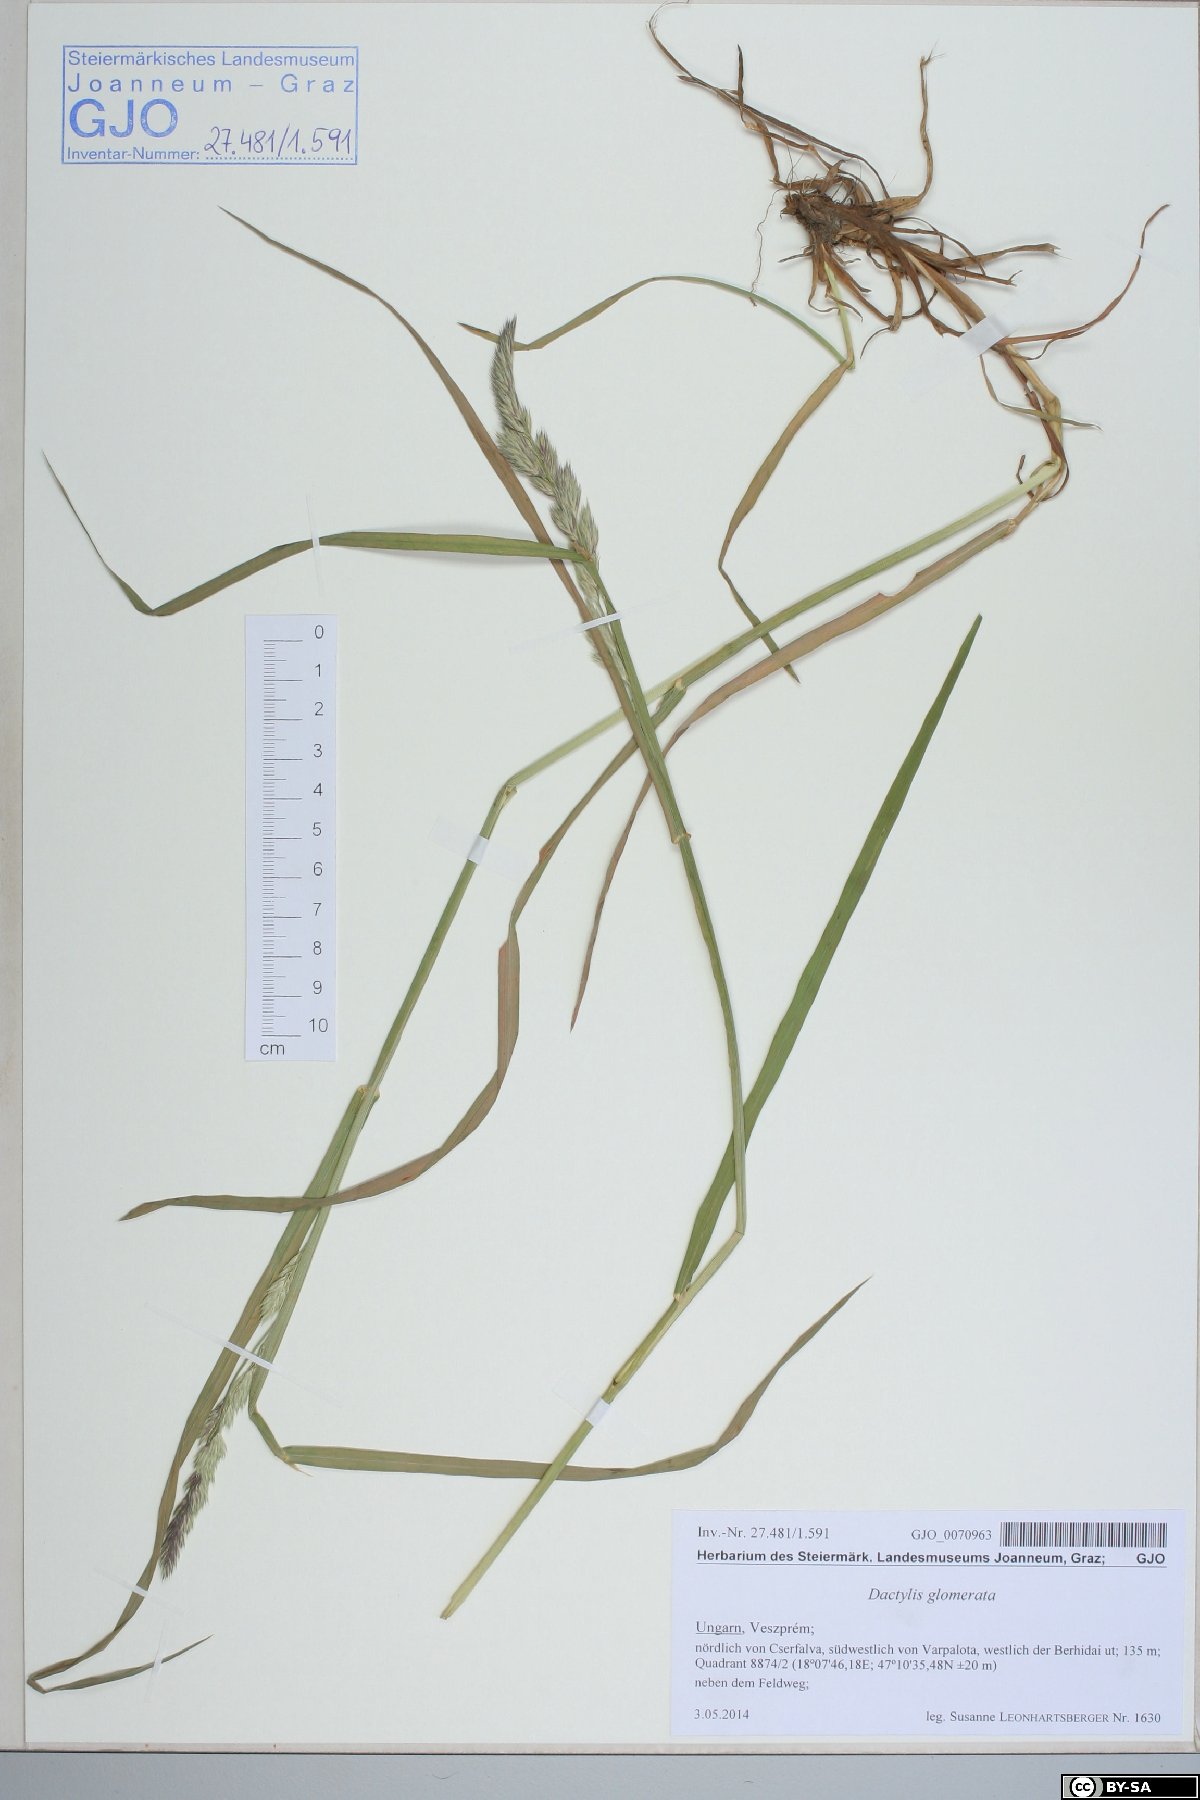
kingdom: Plantae
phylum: Tracheophyta
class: Liliopsida
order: Poales
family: Poaceae
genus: Dactylis
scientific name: Dactylis glomerata
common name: Orchardgrass
